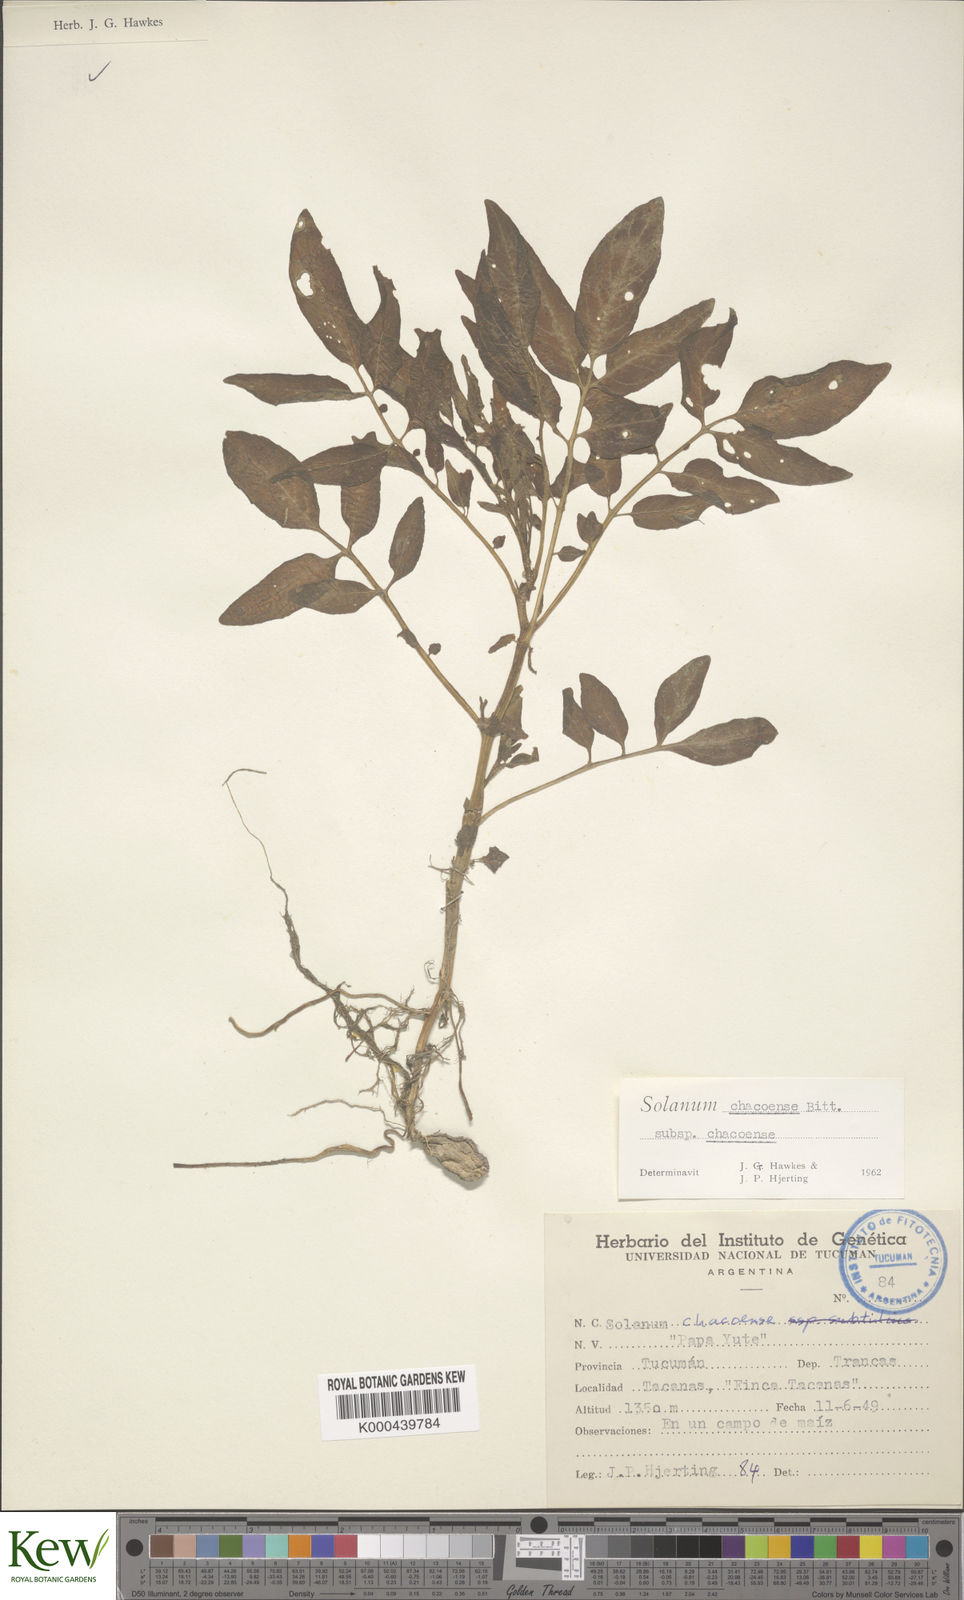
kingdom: Plantae
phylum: Tracheophyta
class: Magnoliopsida
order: Solanales
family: Solanaceae
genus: Solanum
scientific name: Solanum chacoense
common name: Chaco potato
